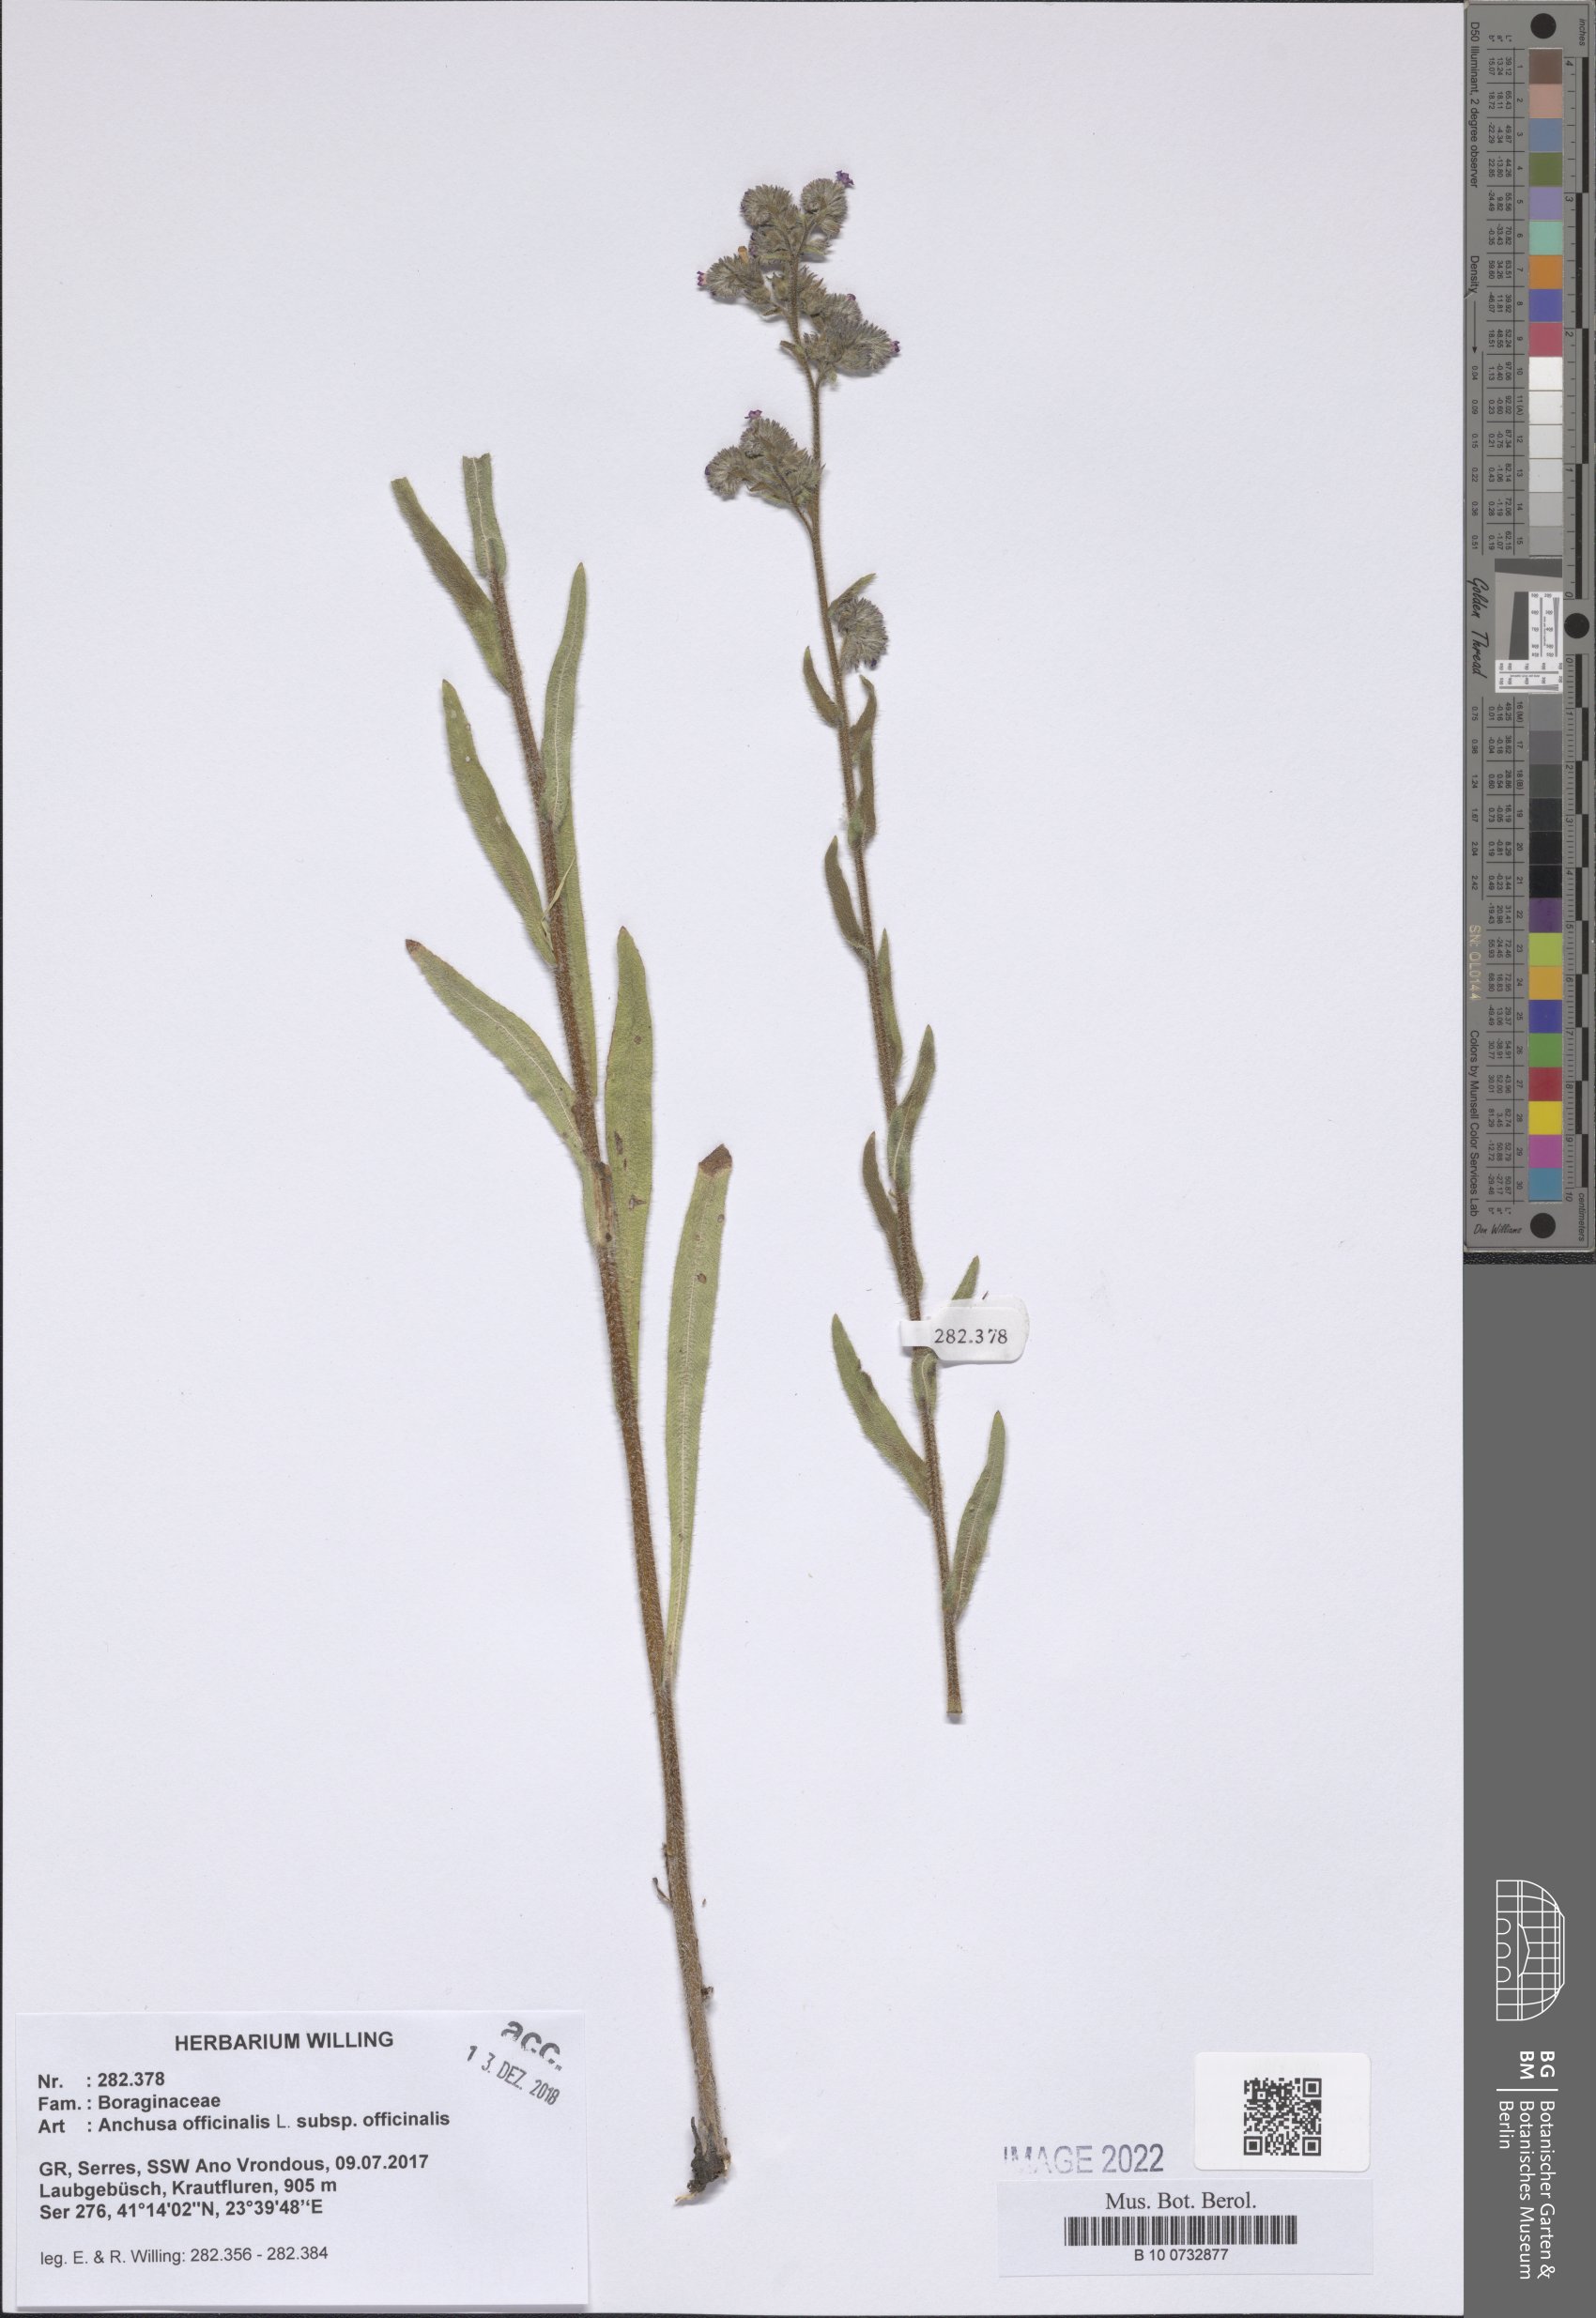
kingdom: Plantae
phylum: Tracheophyta
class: Magnoliopsida
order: Boraginales
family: Boraginaceae
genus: Anchusa
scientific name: Anchusa officinalis
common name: Alkanet
